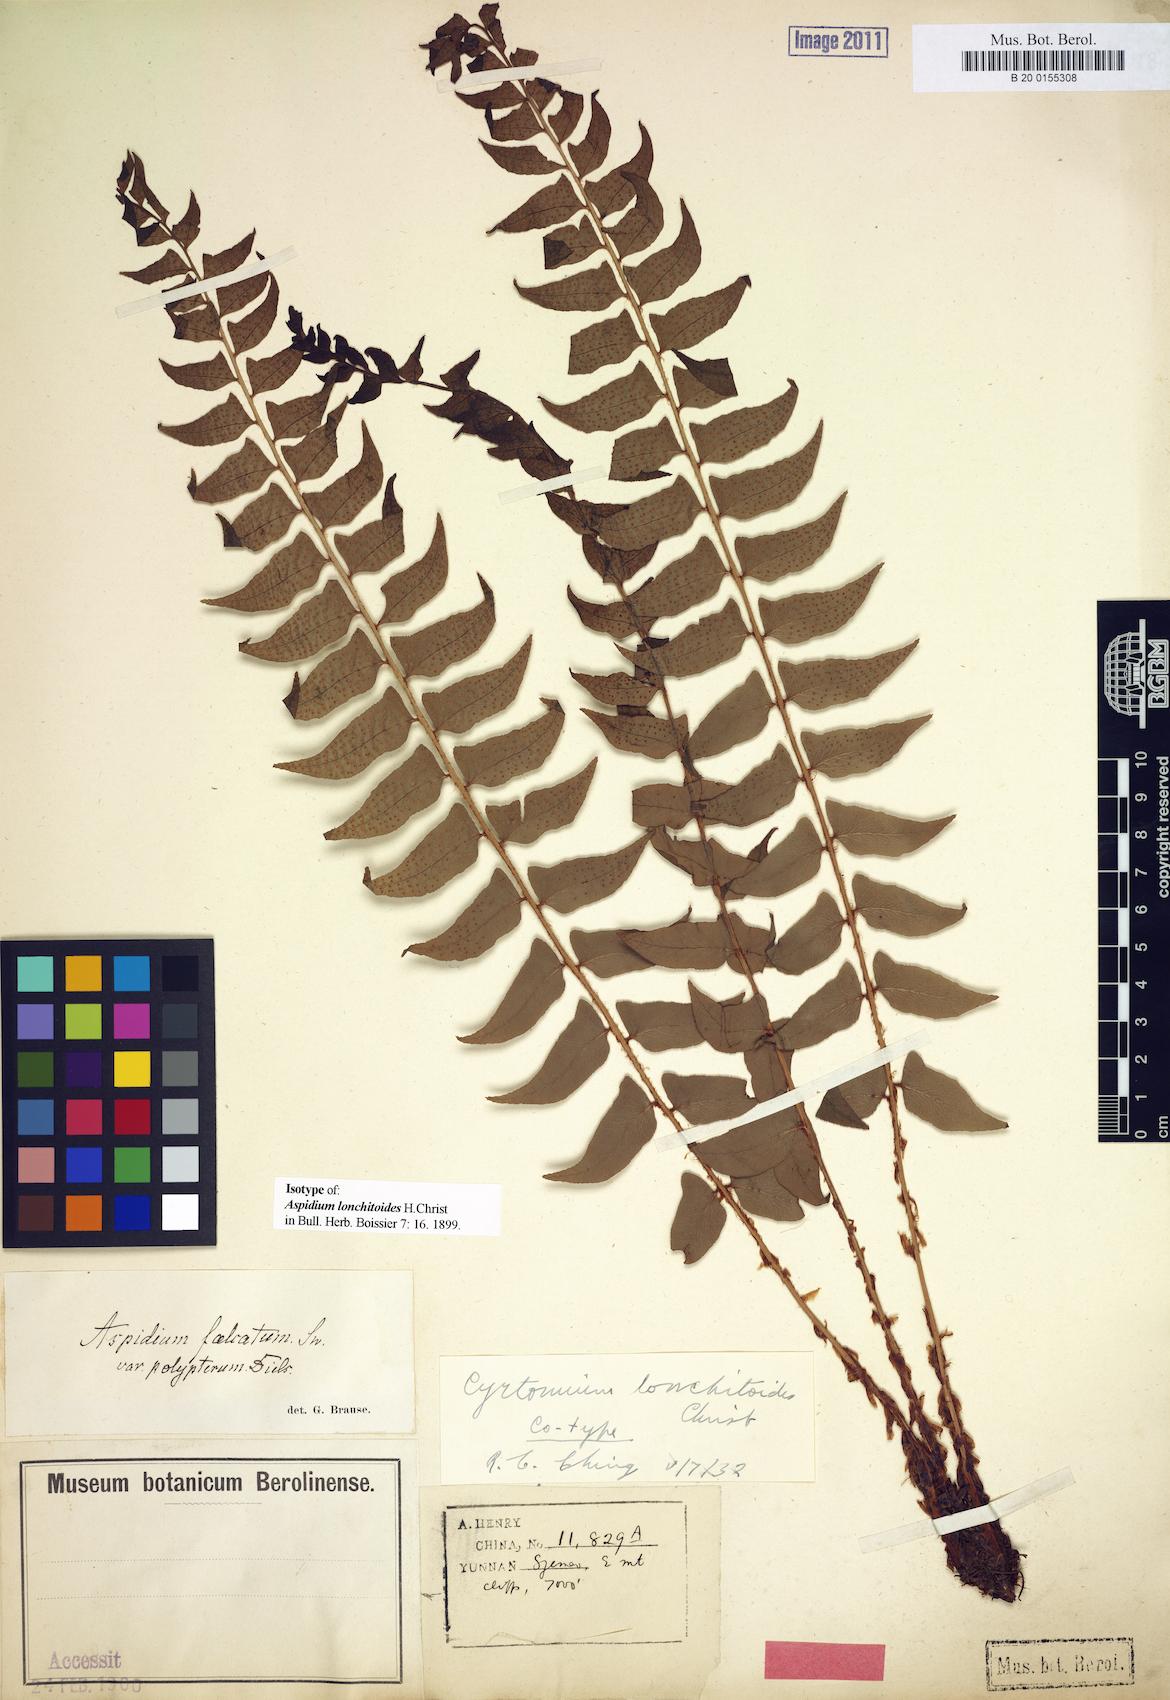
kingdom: Plantae
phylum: Tracheophyta
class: Polypodiopsida
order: Polypodiales
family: Dryopteridaceae
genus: Cyrtomium
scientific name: Cyrtomium lonchitoides
